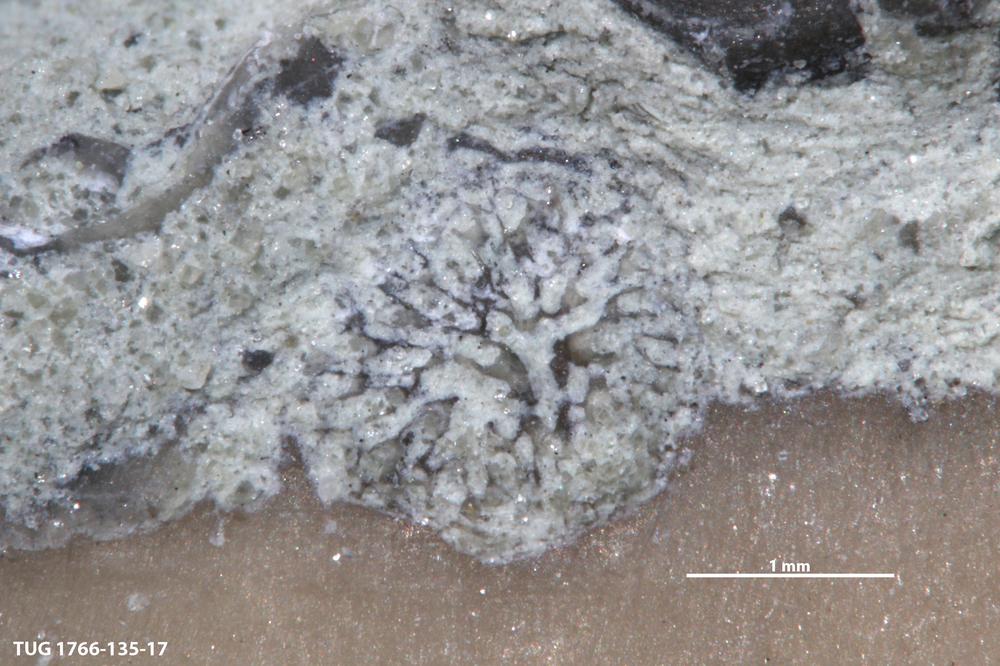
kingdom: Animalia
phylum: Bryozoa
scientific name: Bryozoa
